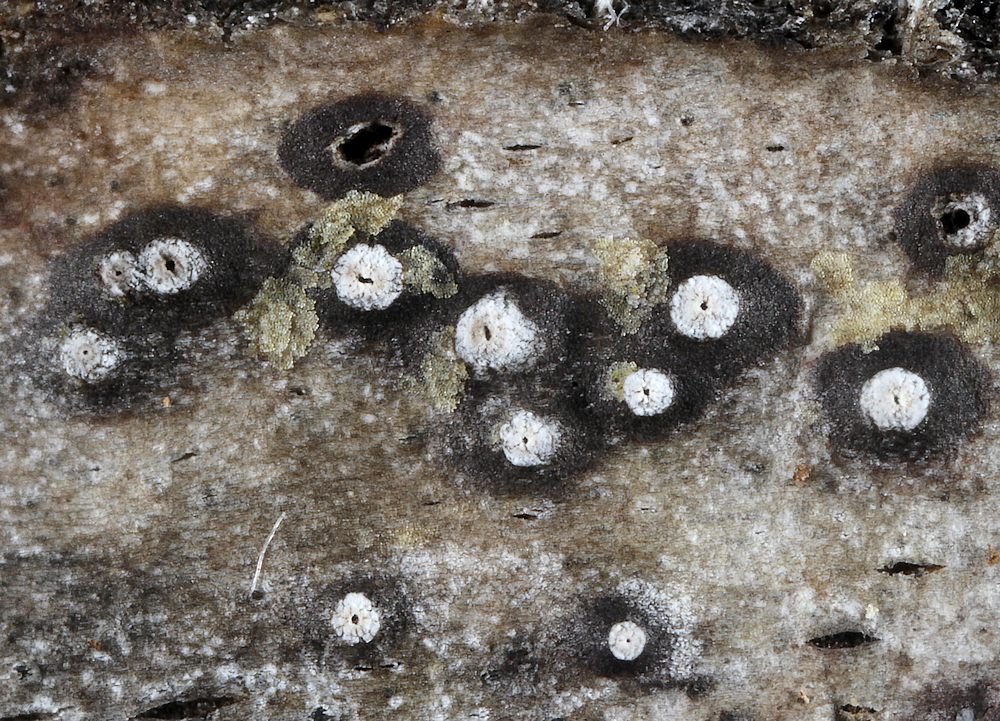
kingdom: Fungi
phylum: Ascomycota
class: Sordariomycetes
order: Diaporthales
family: Valsaceae
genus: Cytospora
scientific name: Cytospora nivea
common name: hvidskivet kulknippe
